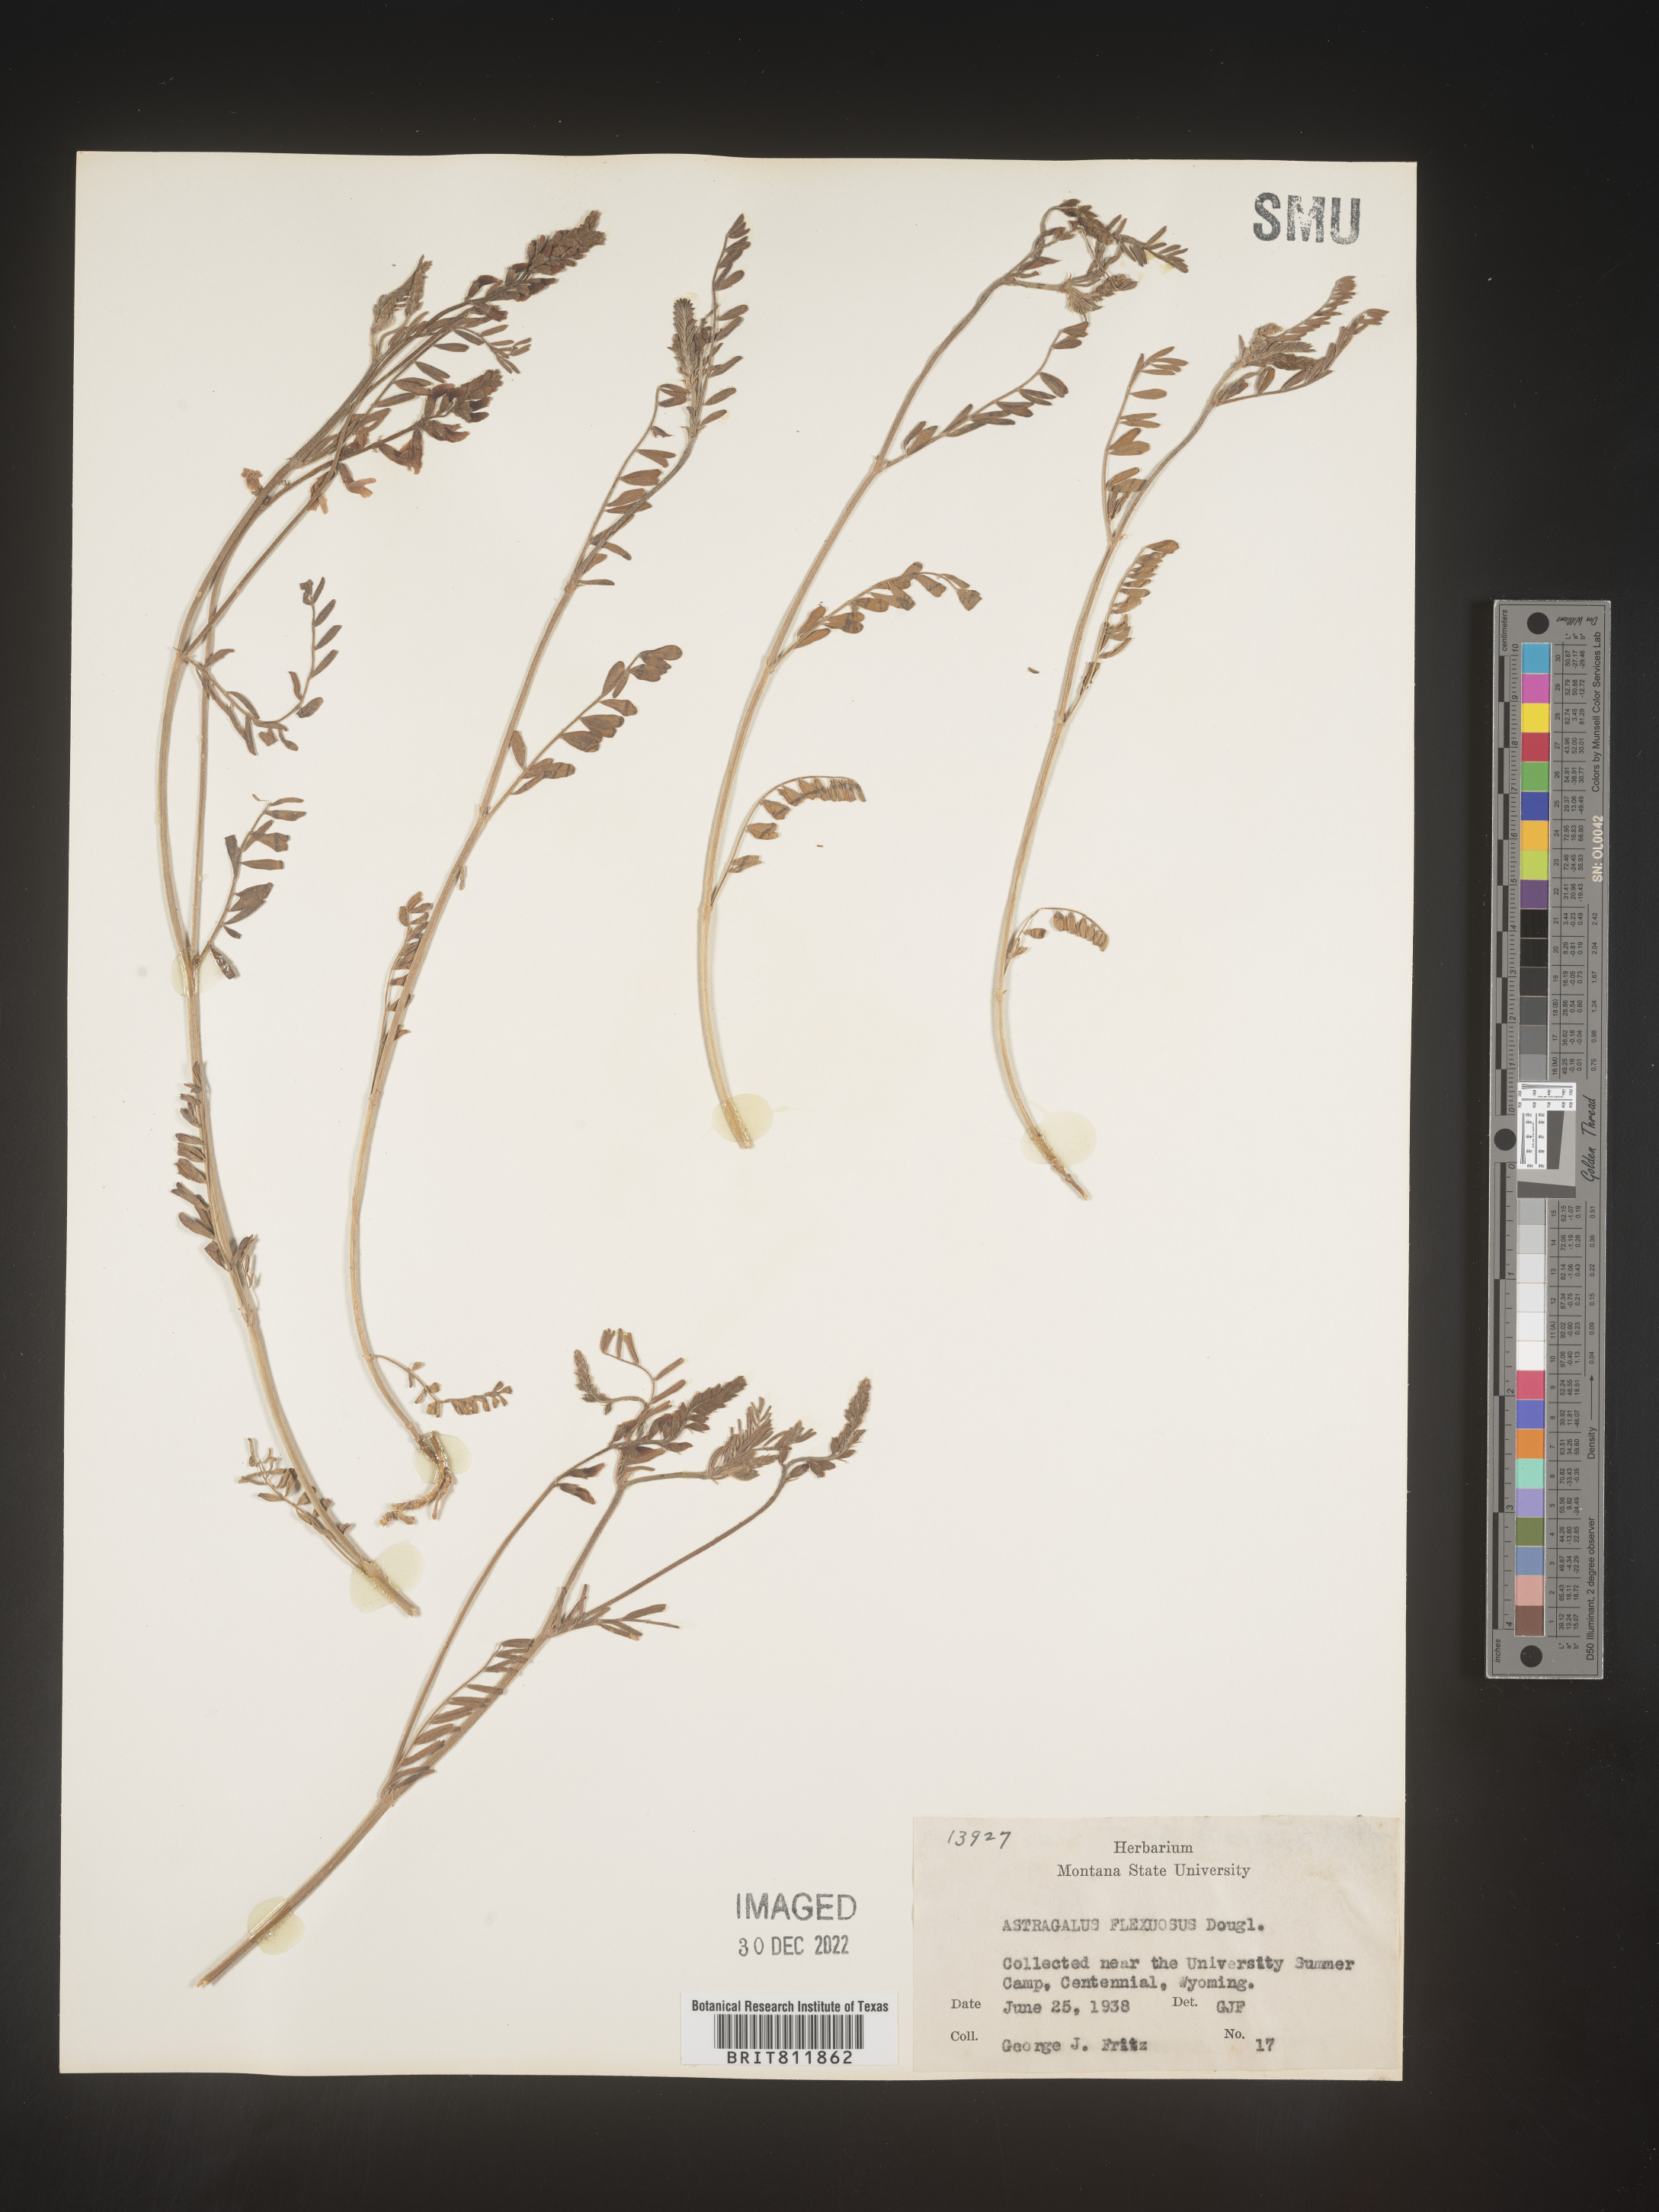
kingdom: Plantae
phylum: Tracheophyta
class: Magnoliopsida
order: Fabales
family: Fabaceae
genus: Astragalus
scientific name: Astragalus flexuosus
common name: Pliant milk-vetch
